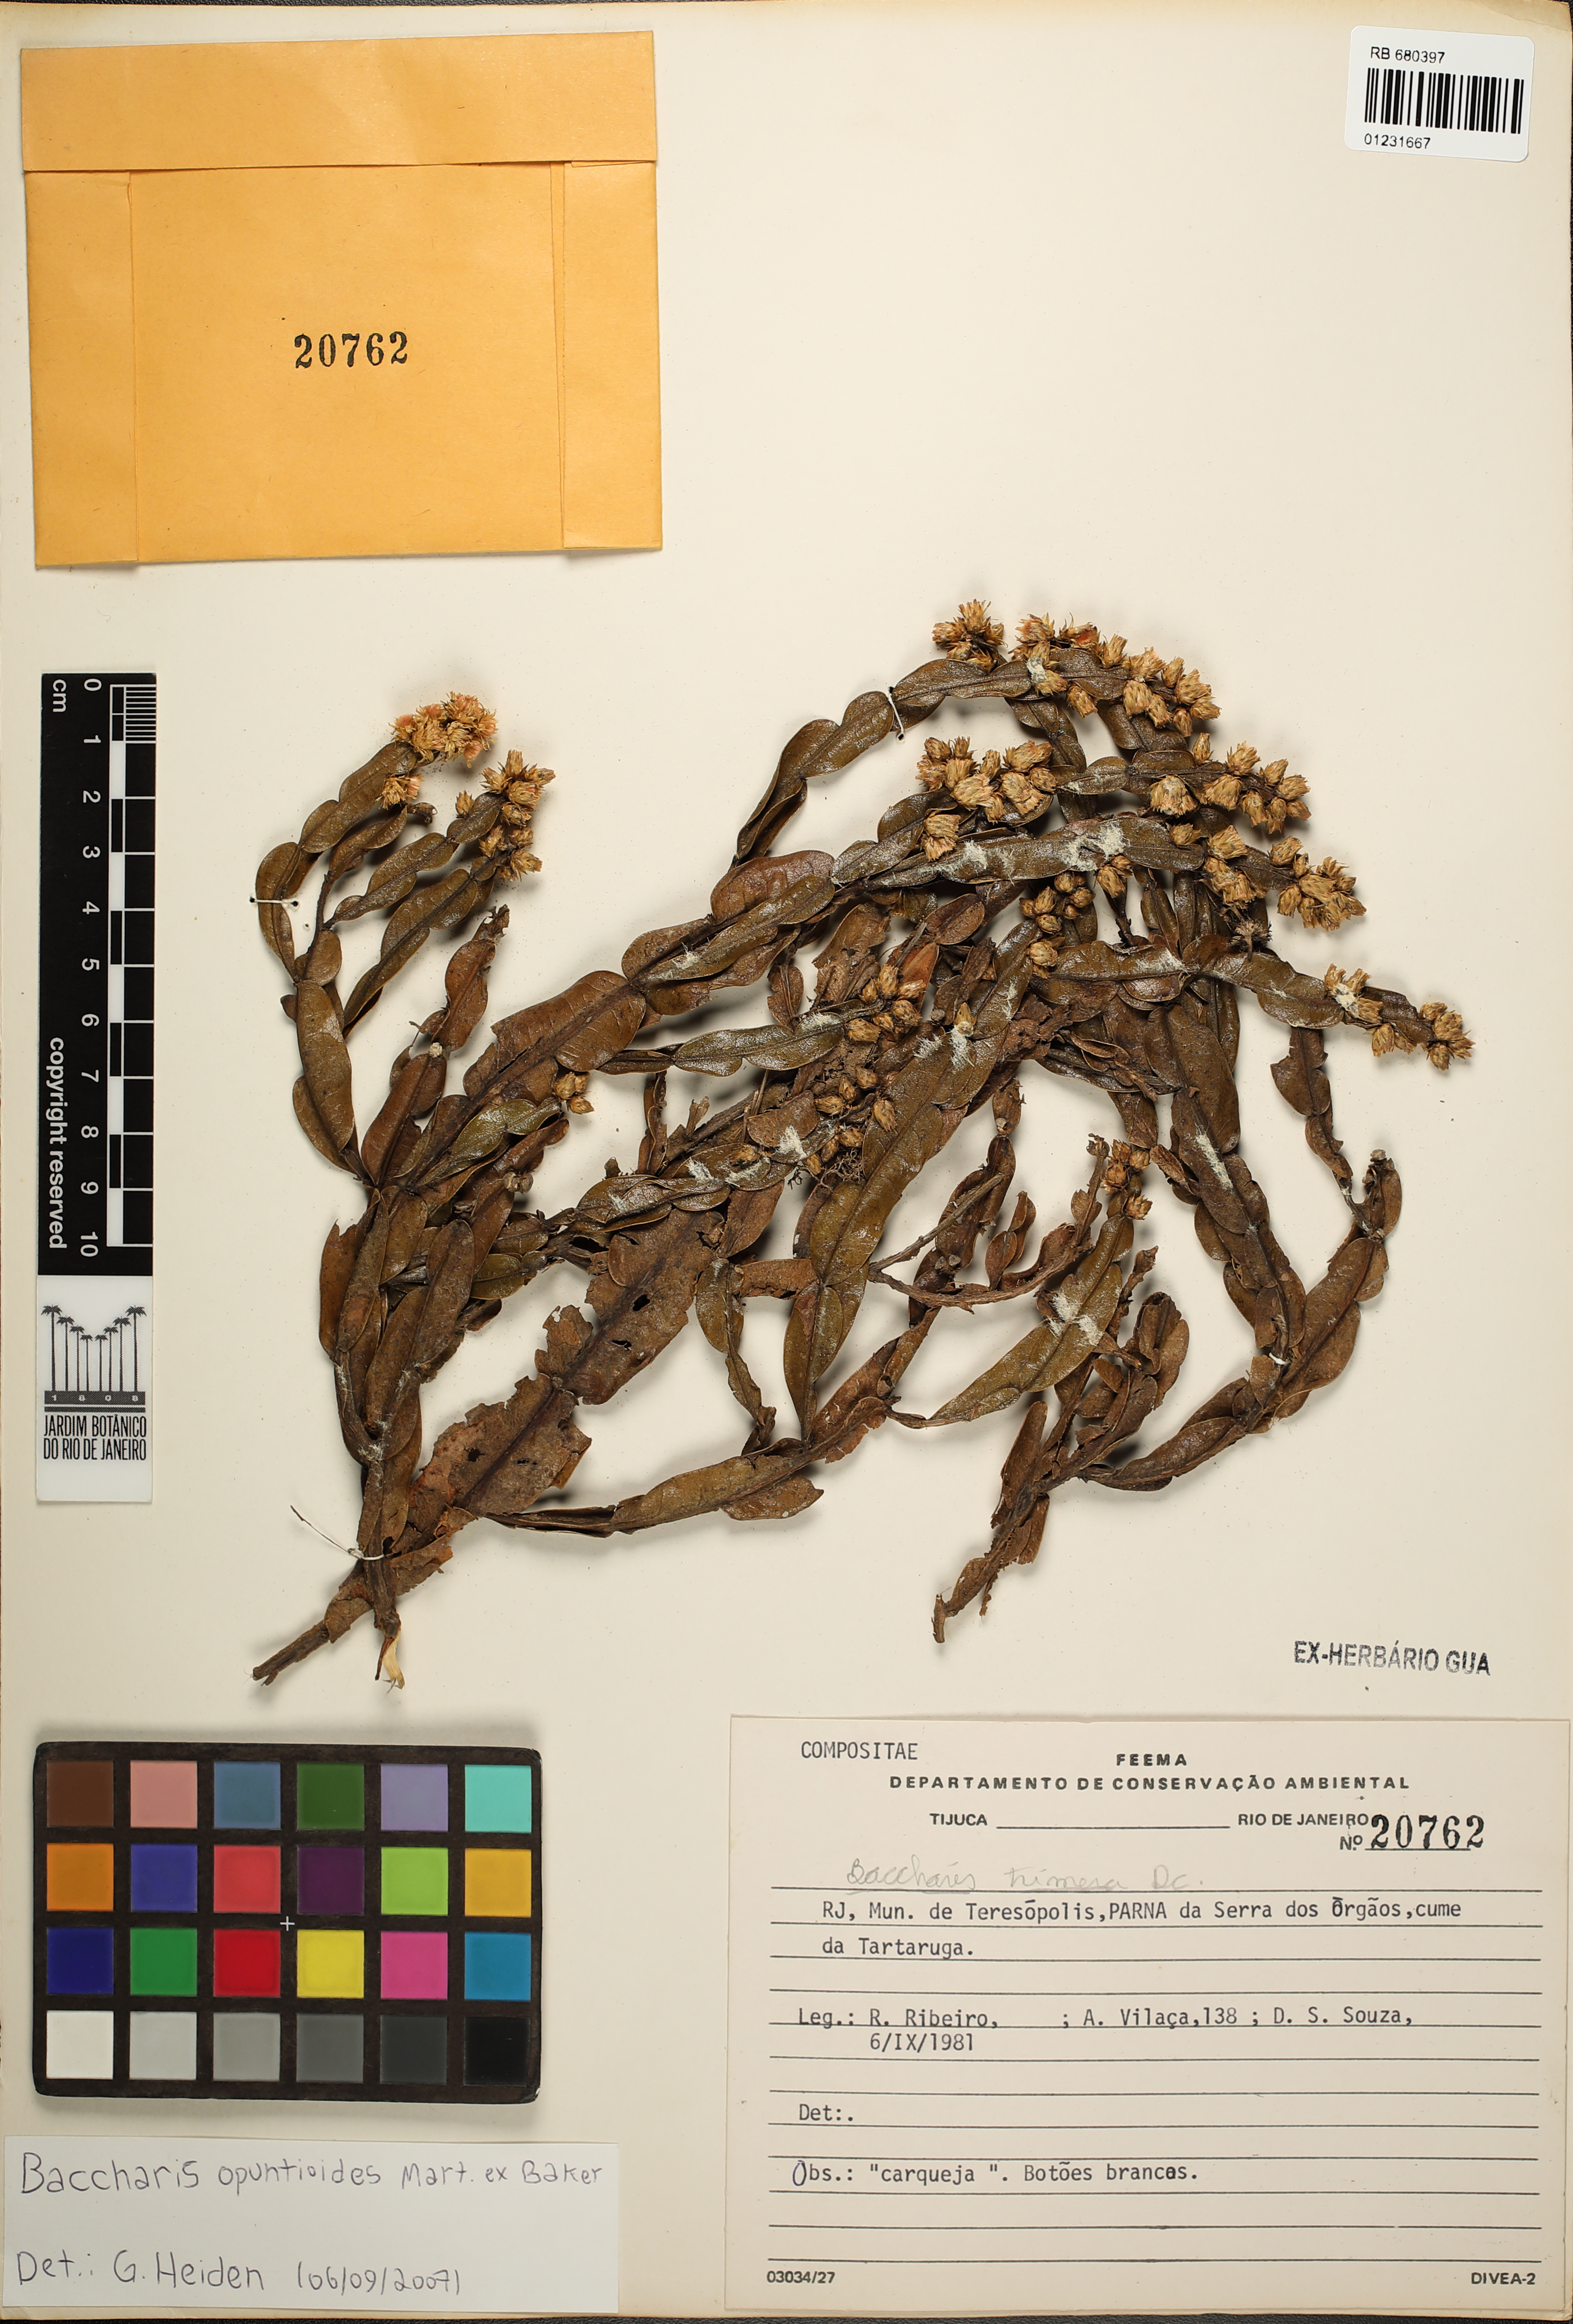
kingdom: Plantae
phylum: Tracheophyta
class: Magnoliopsida
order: Asterales
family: Asteraceae
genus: Baccharis
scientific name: Baccharis opuntioides
